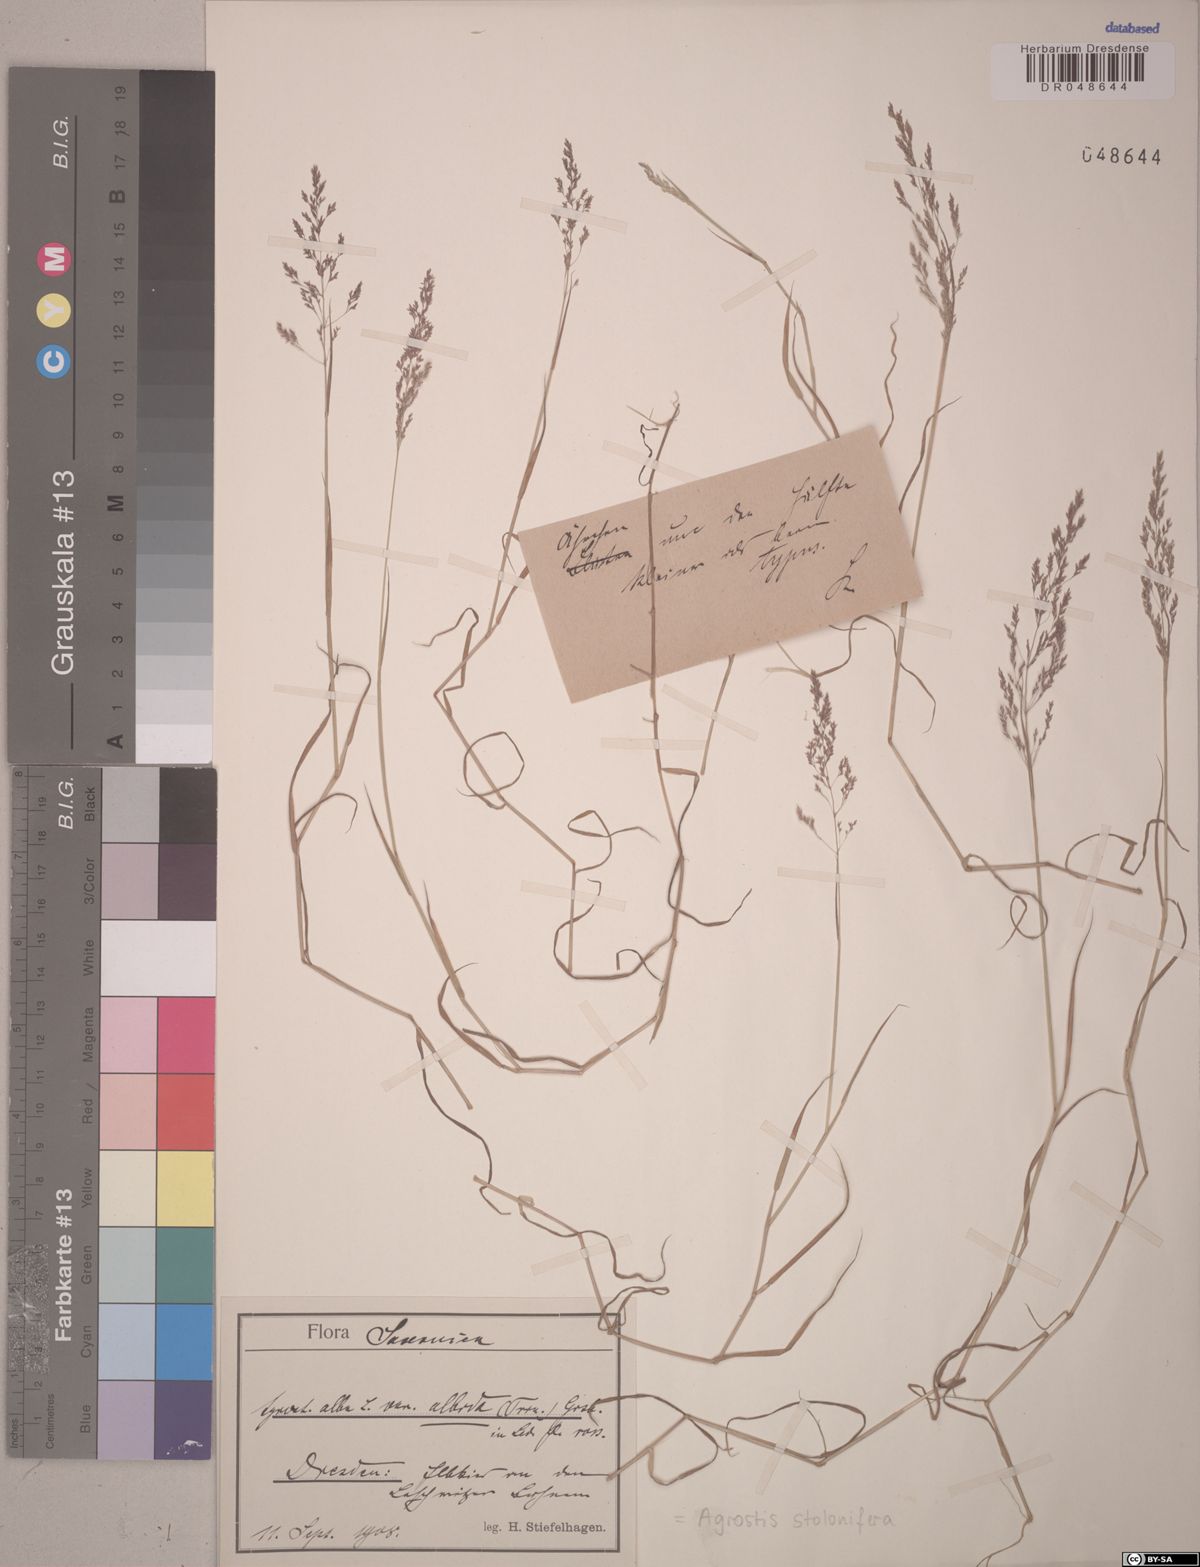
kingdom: Plantae
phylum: Tracheophyta
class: Liliopsida
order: Poales
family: Poaceae
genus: Agrostis
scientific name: Agrostis stolonifera
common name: Creeping bentgrass
